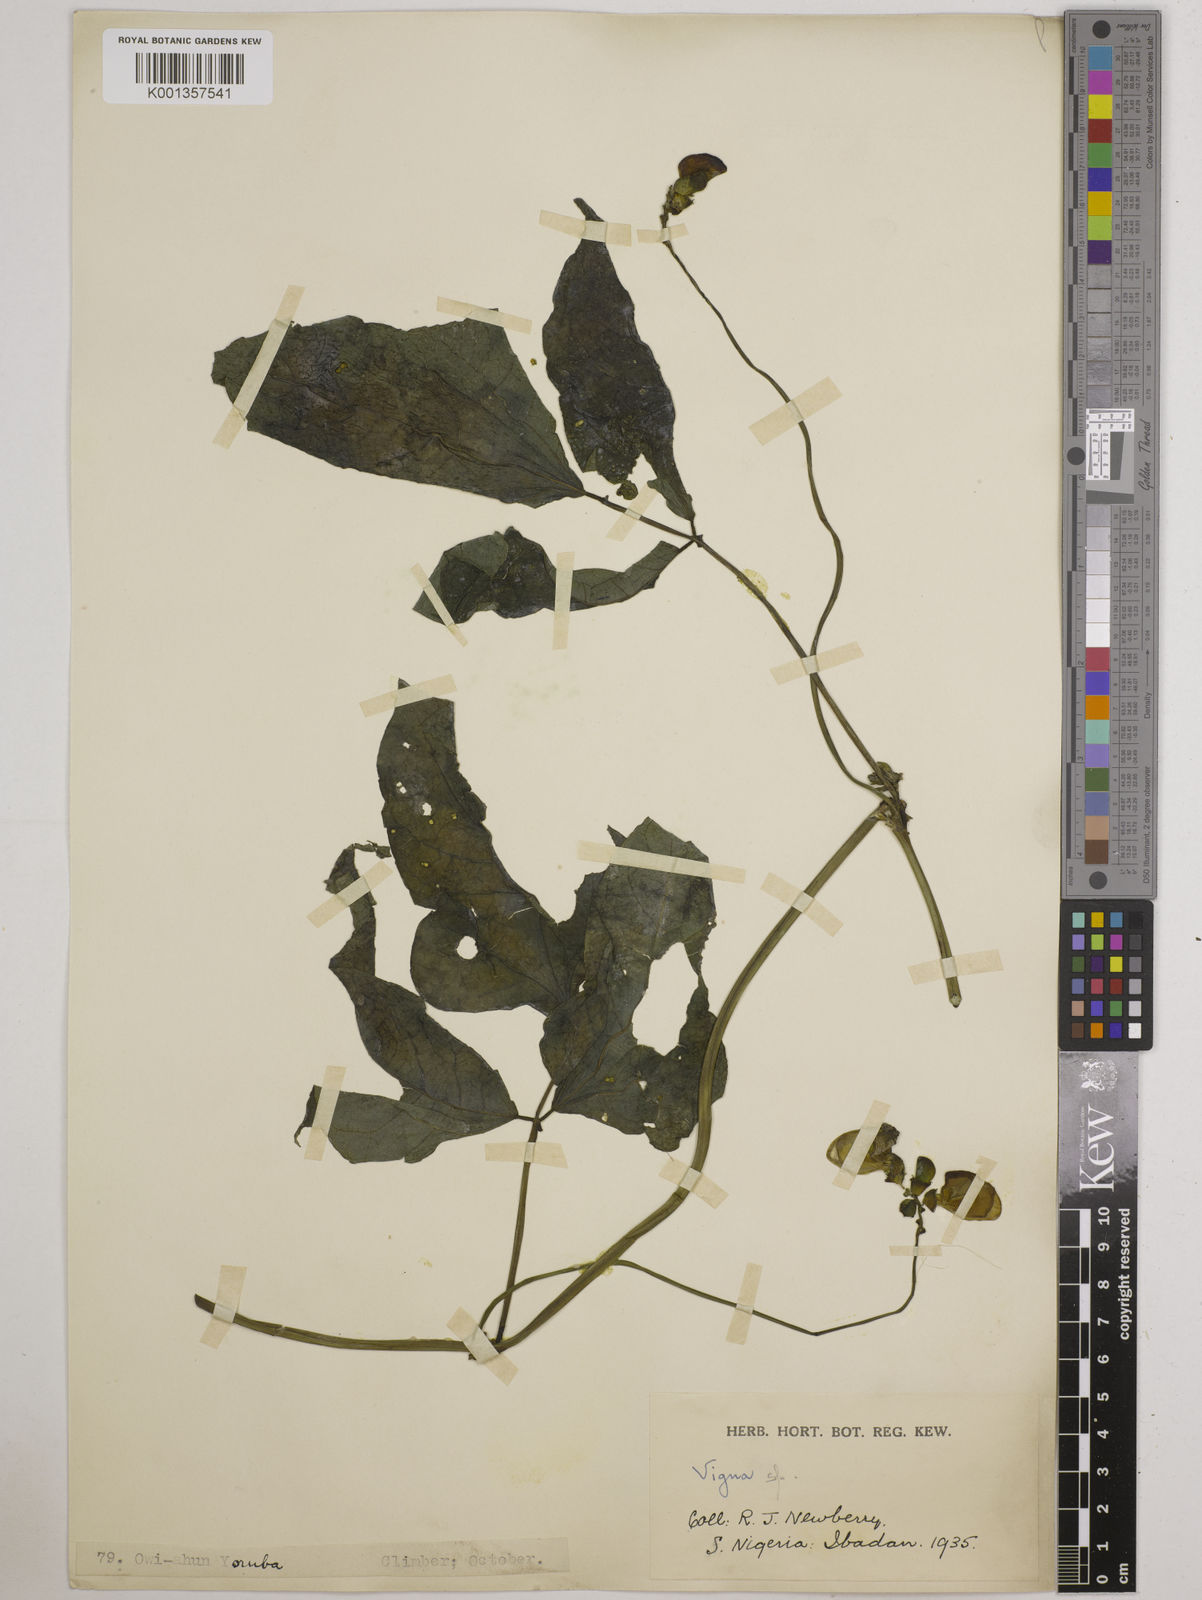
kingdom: Plantae
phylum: Tracheophyta
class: Magnoliopsida
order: Fabales
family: Fabaceae
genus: Vigna
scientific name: Vigna
